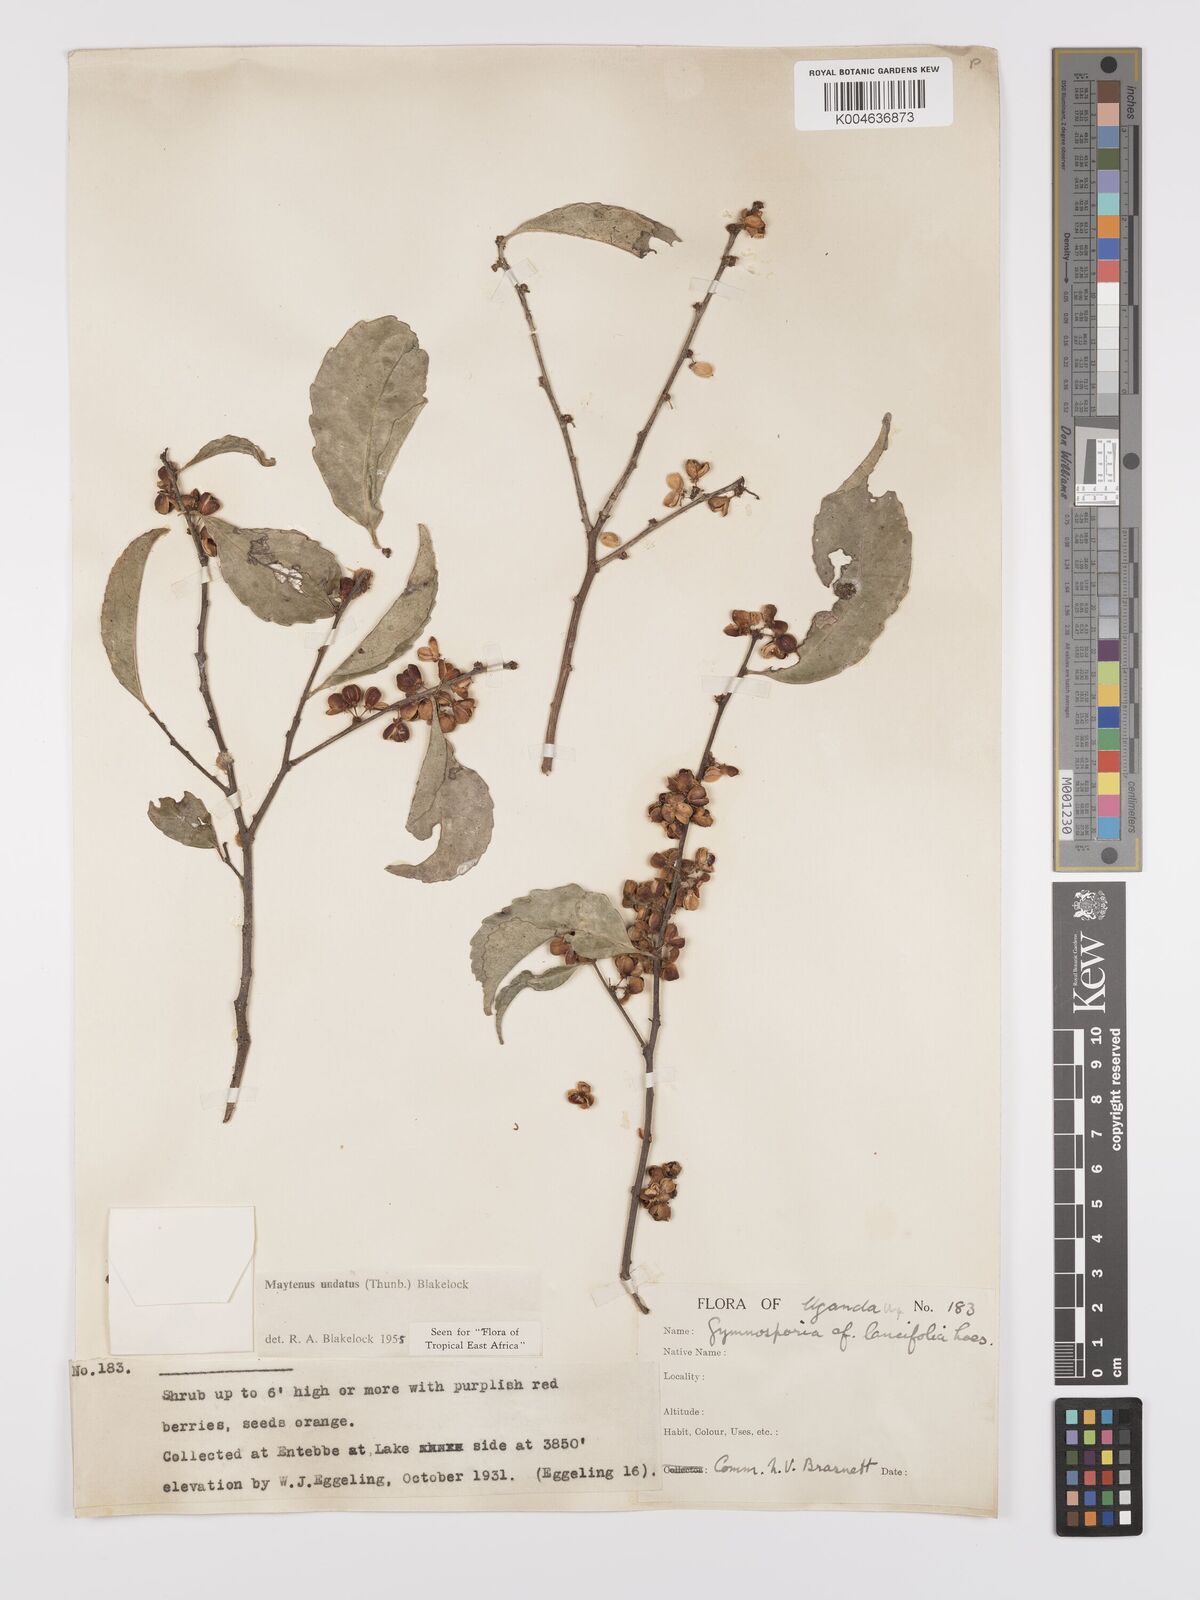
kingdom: Plantae
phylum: Tracheophyta
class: Magnoliopsida
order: Celastrales
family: Celastraceae
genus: Gymnosporia
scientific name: Gymnosporia undata
